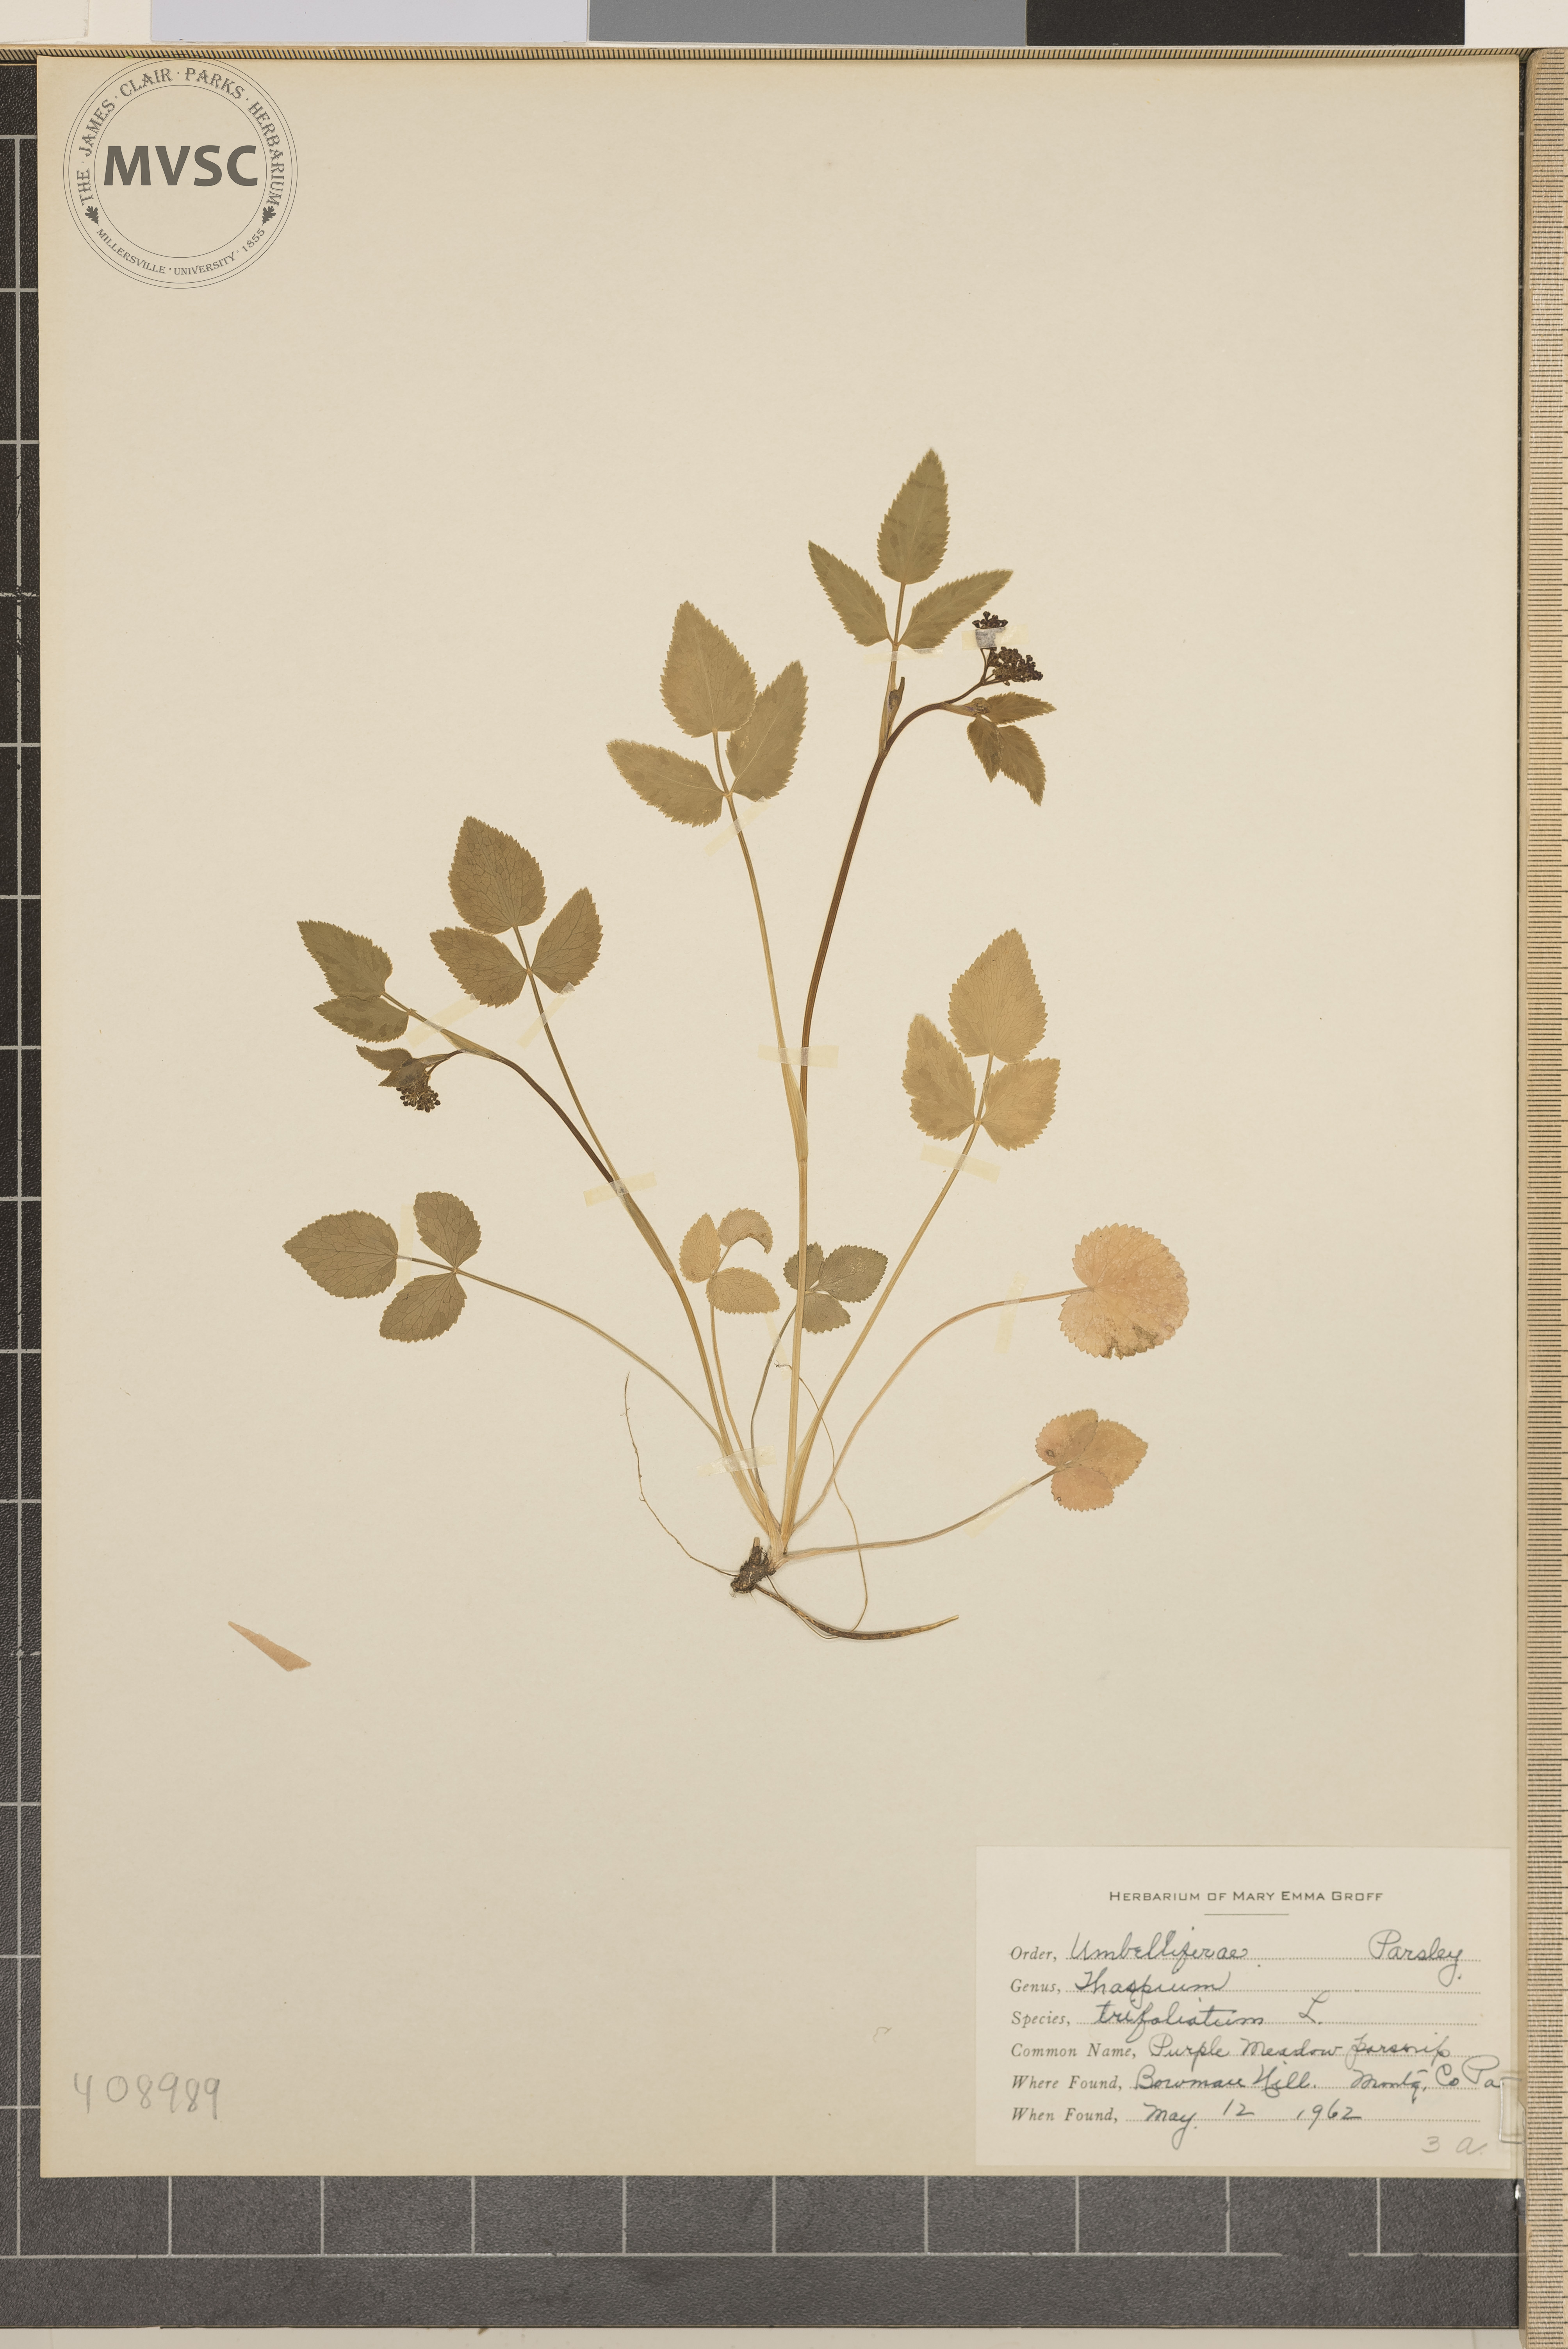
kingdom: Plantae
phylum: Tracheophyta
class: Magnoliopsida
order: Apiales
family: Apiaceae
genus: Thaspium
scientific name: Thaspium trifoliatum
